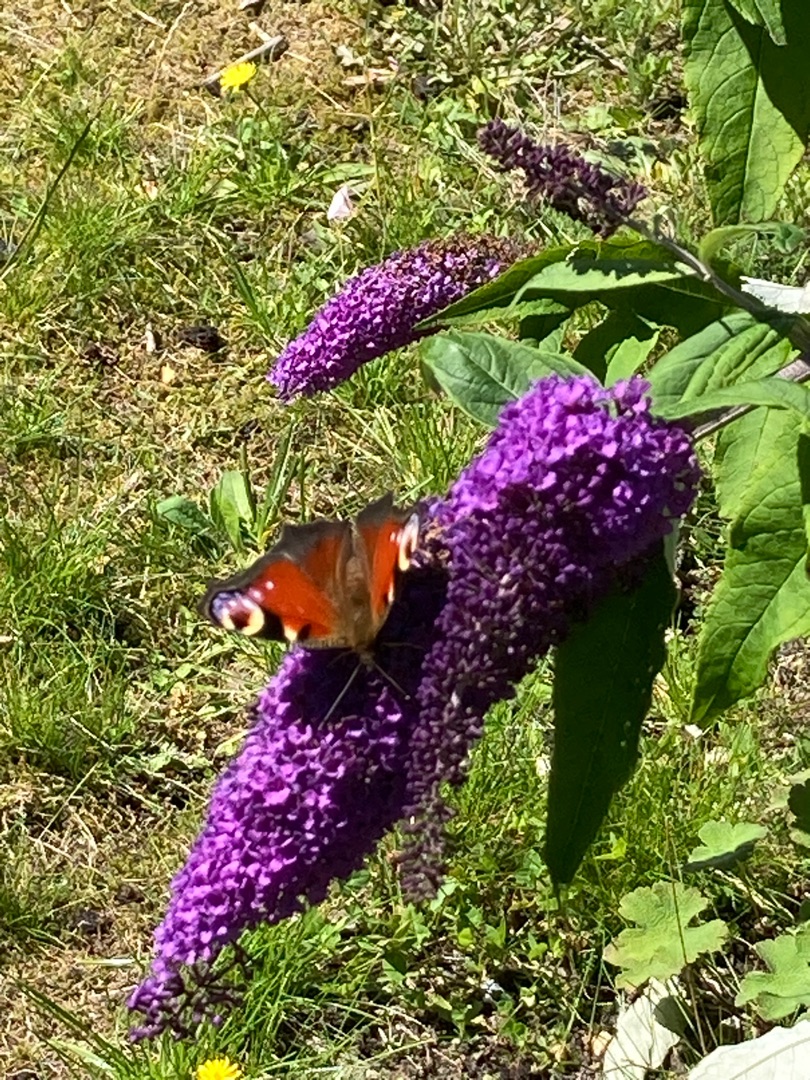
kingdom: Animalia
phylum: Arthropoda
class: Insecta
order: Lepidoptera
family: Nymphalidae
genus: Aglais
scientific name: Aglais io
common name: Dagpåfugleøje
